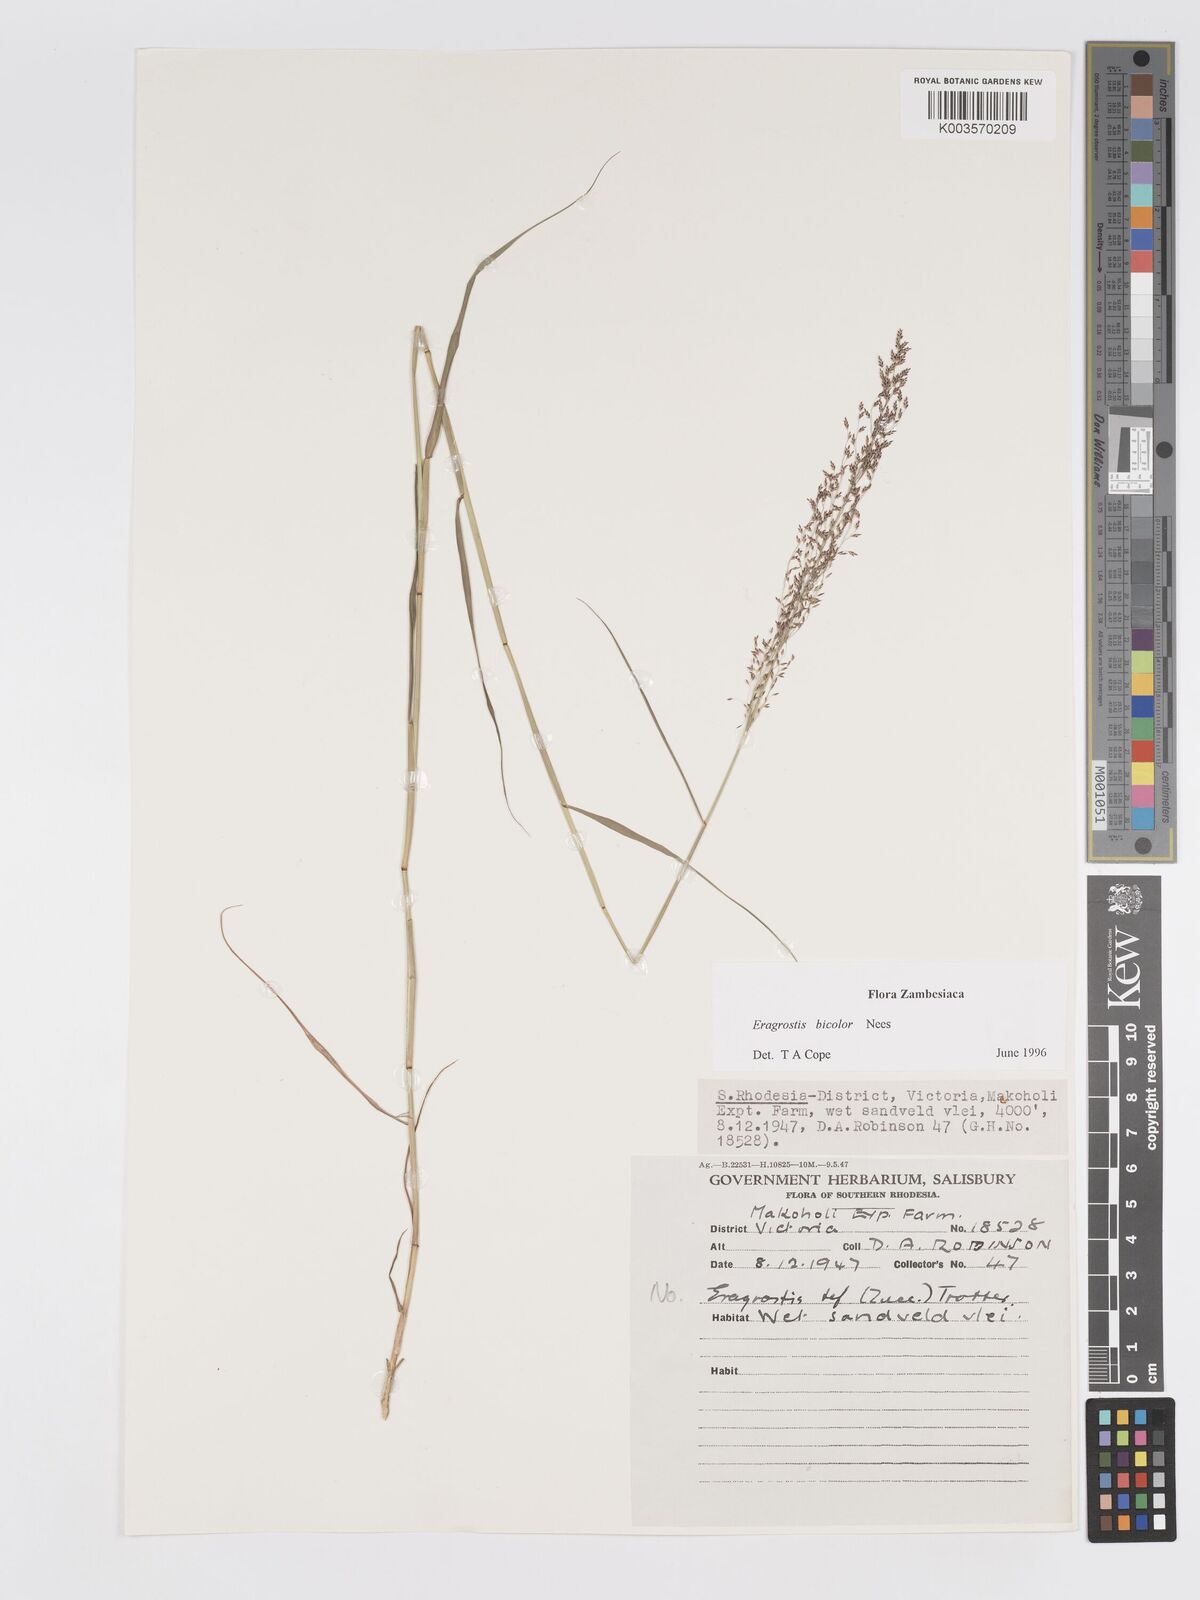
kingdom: Plantae
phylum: Tracheophyta
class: Liliopsida
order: Poales
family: Poaceae
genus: Eragrostis
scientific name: Eragrostis bicolor
